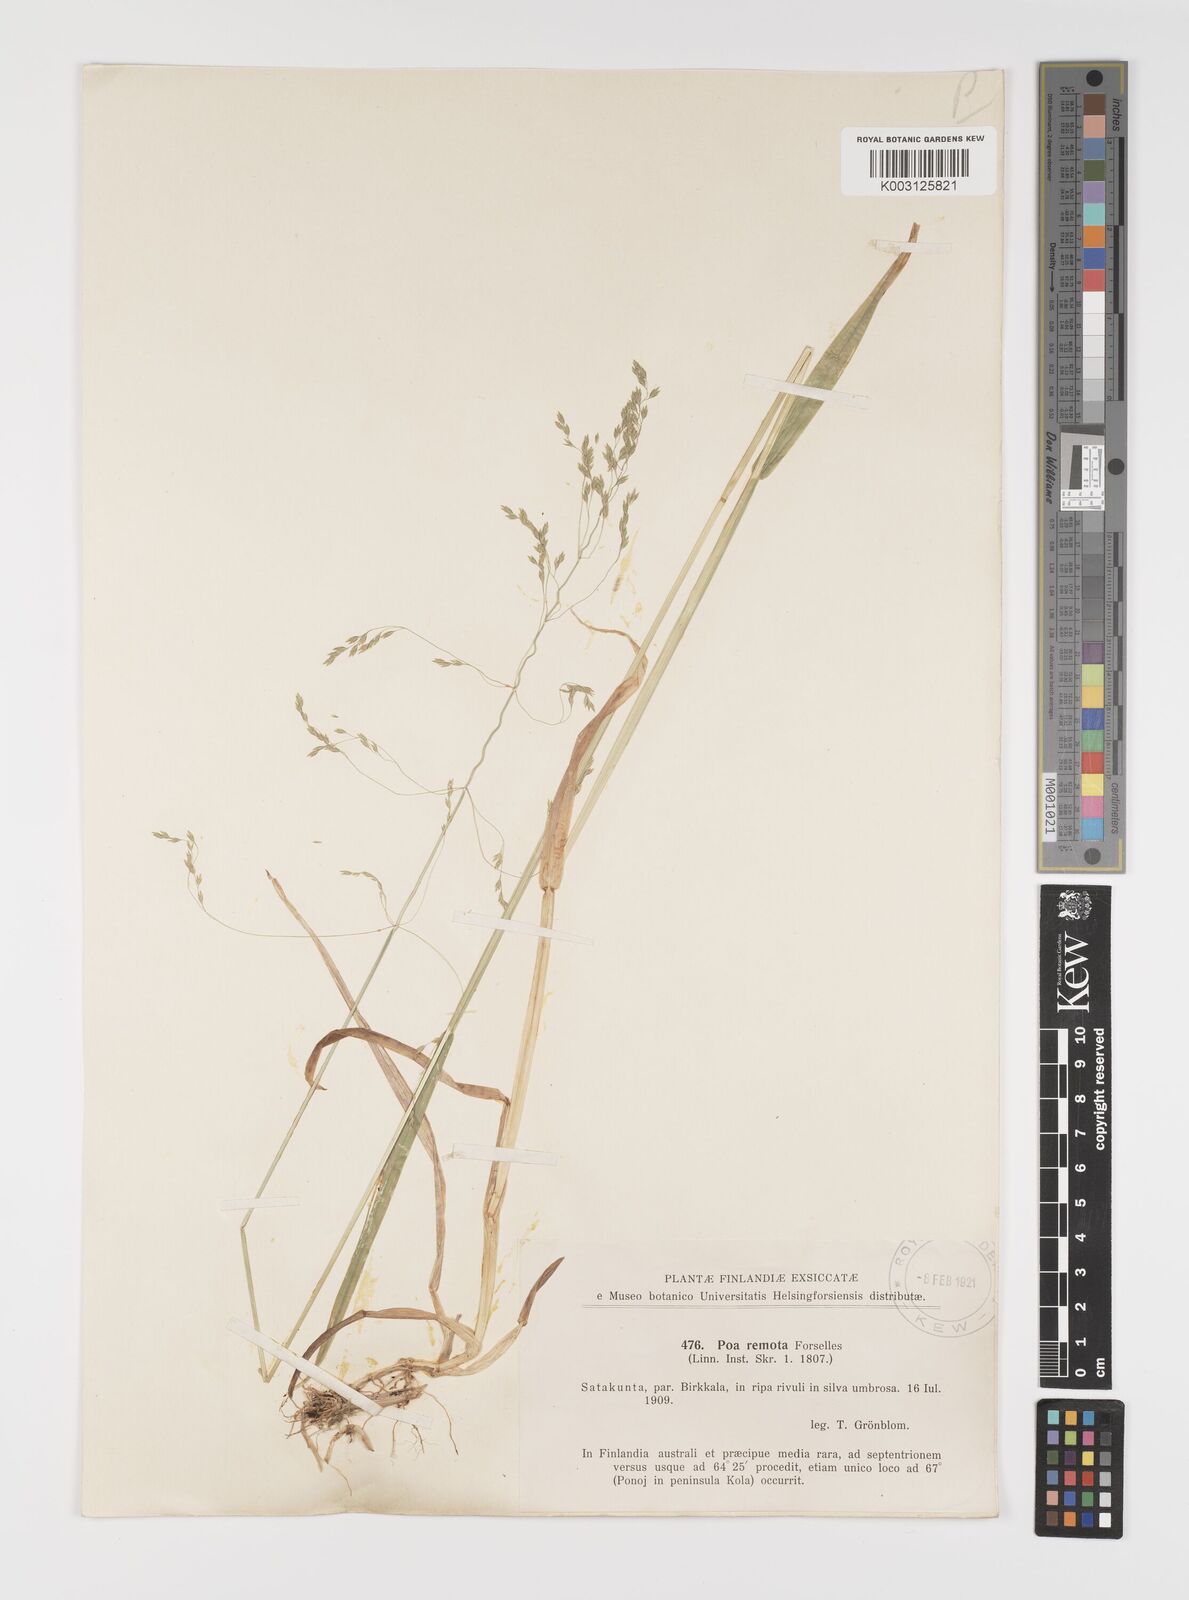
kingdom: Plantae
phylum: Tracheophyta
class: Liliopsida
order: Poales
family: Poaceae
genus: Poa
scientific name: Poa remota
